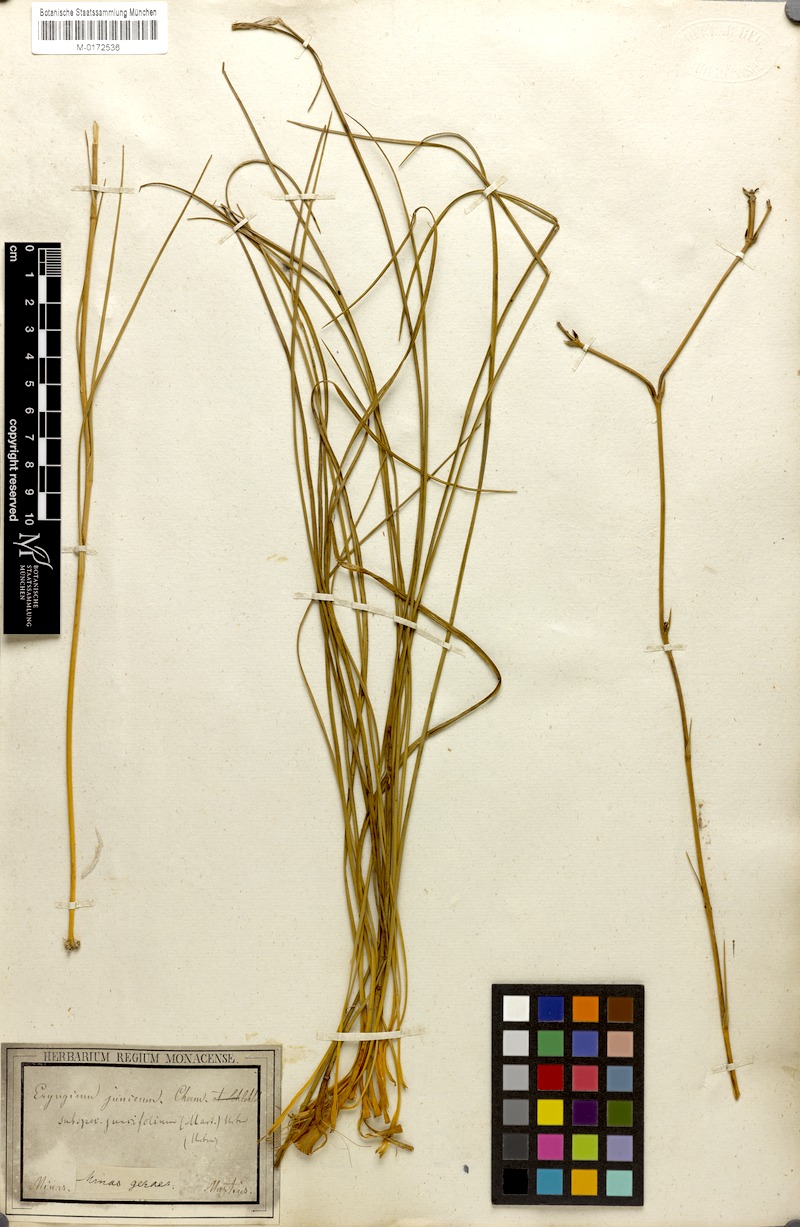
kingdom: Plantae
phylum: Tracheophyta
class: Magnoliopsida
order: Apiales
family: Apiaceae
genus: Eryngium
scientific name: Eryngium juncifolium
